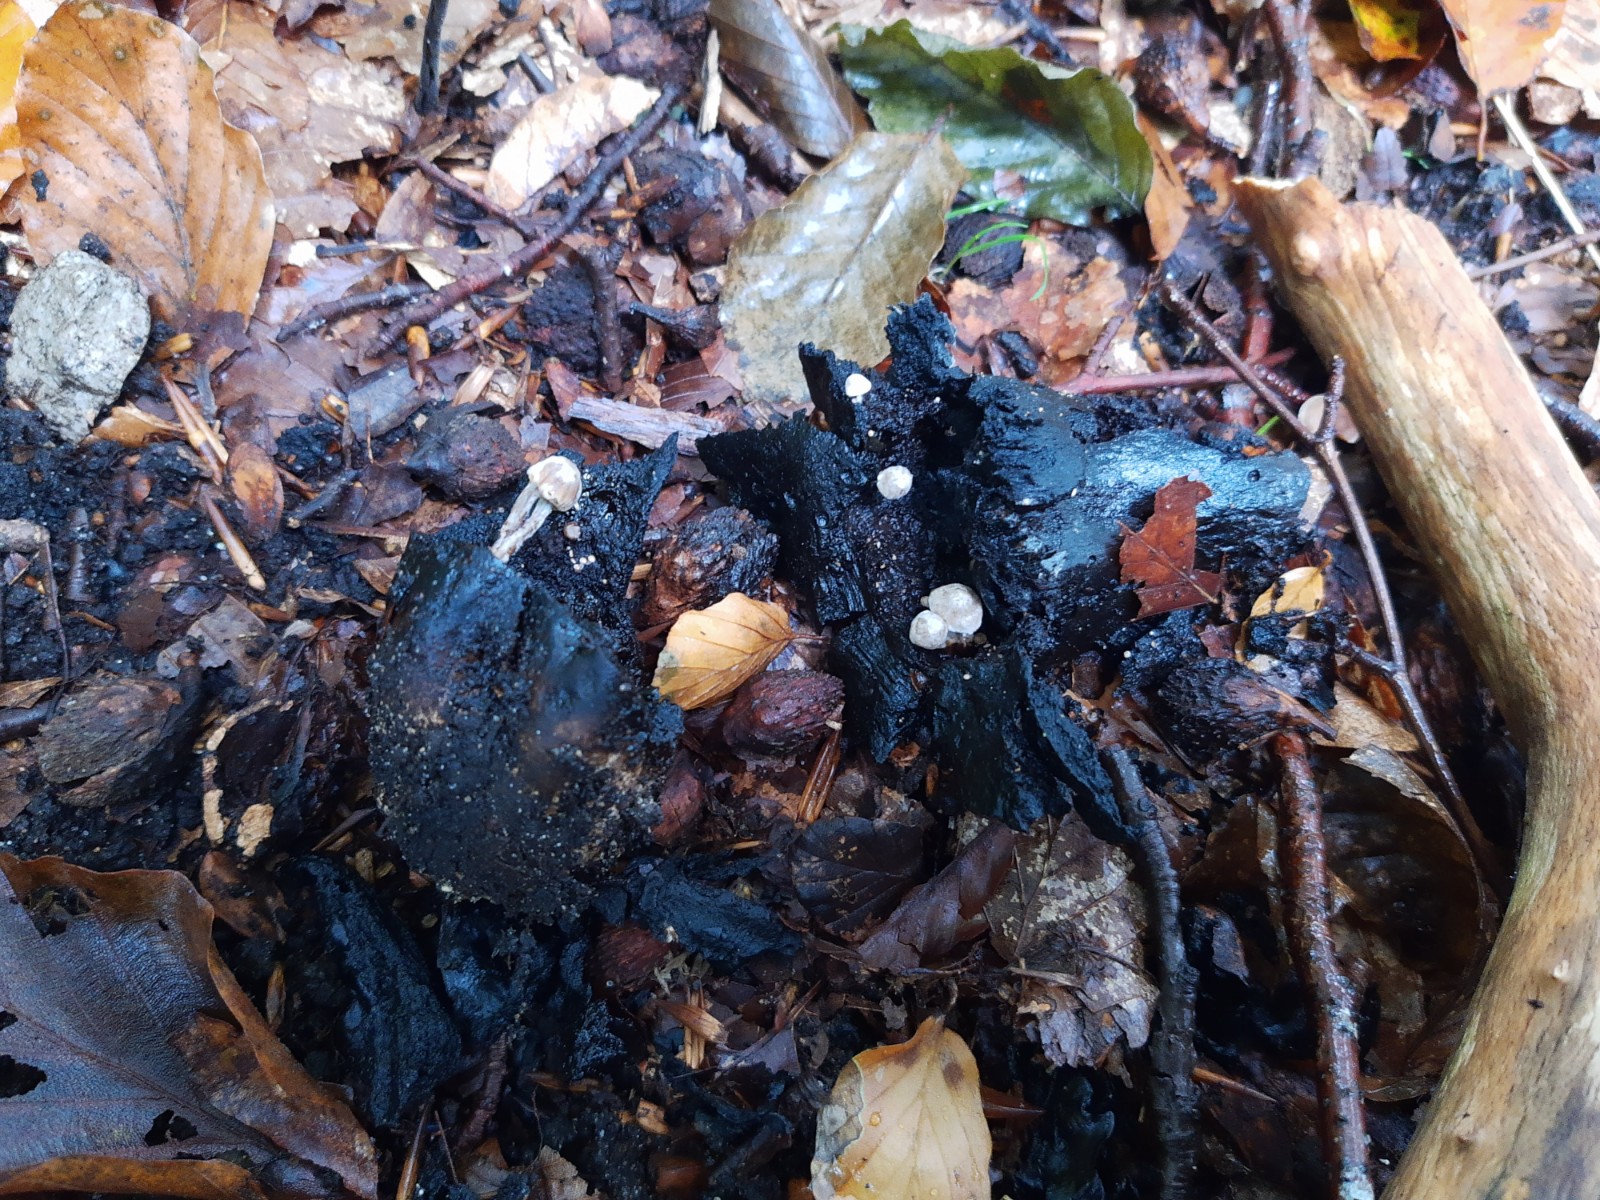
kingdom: Fungi
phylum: Basidiomycota
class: Agaricomycetes
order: Agaricales
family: Lyophyllaceae
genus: Asterophora
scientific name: Asterophora parasitica
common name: grå snyltehat
